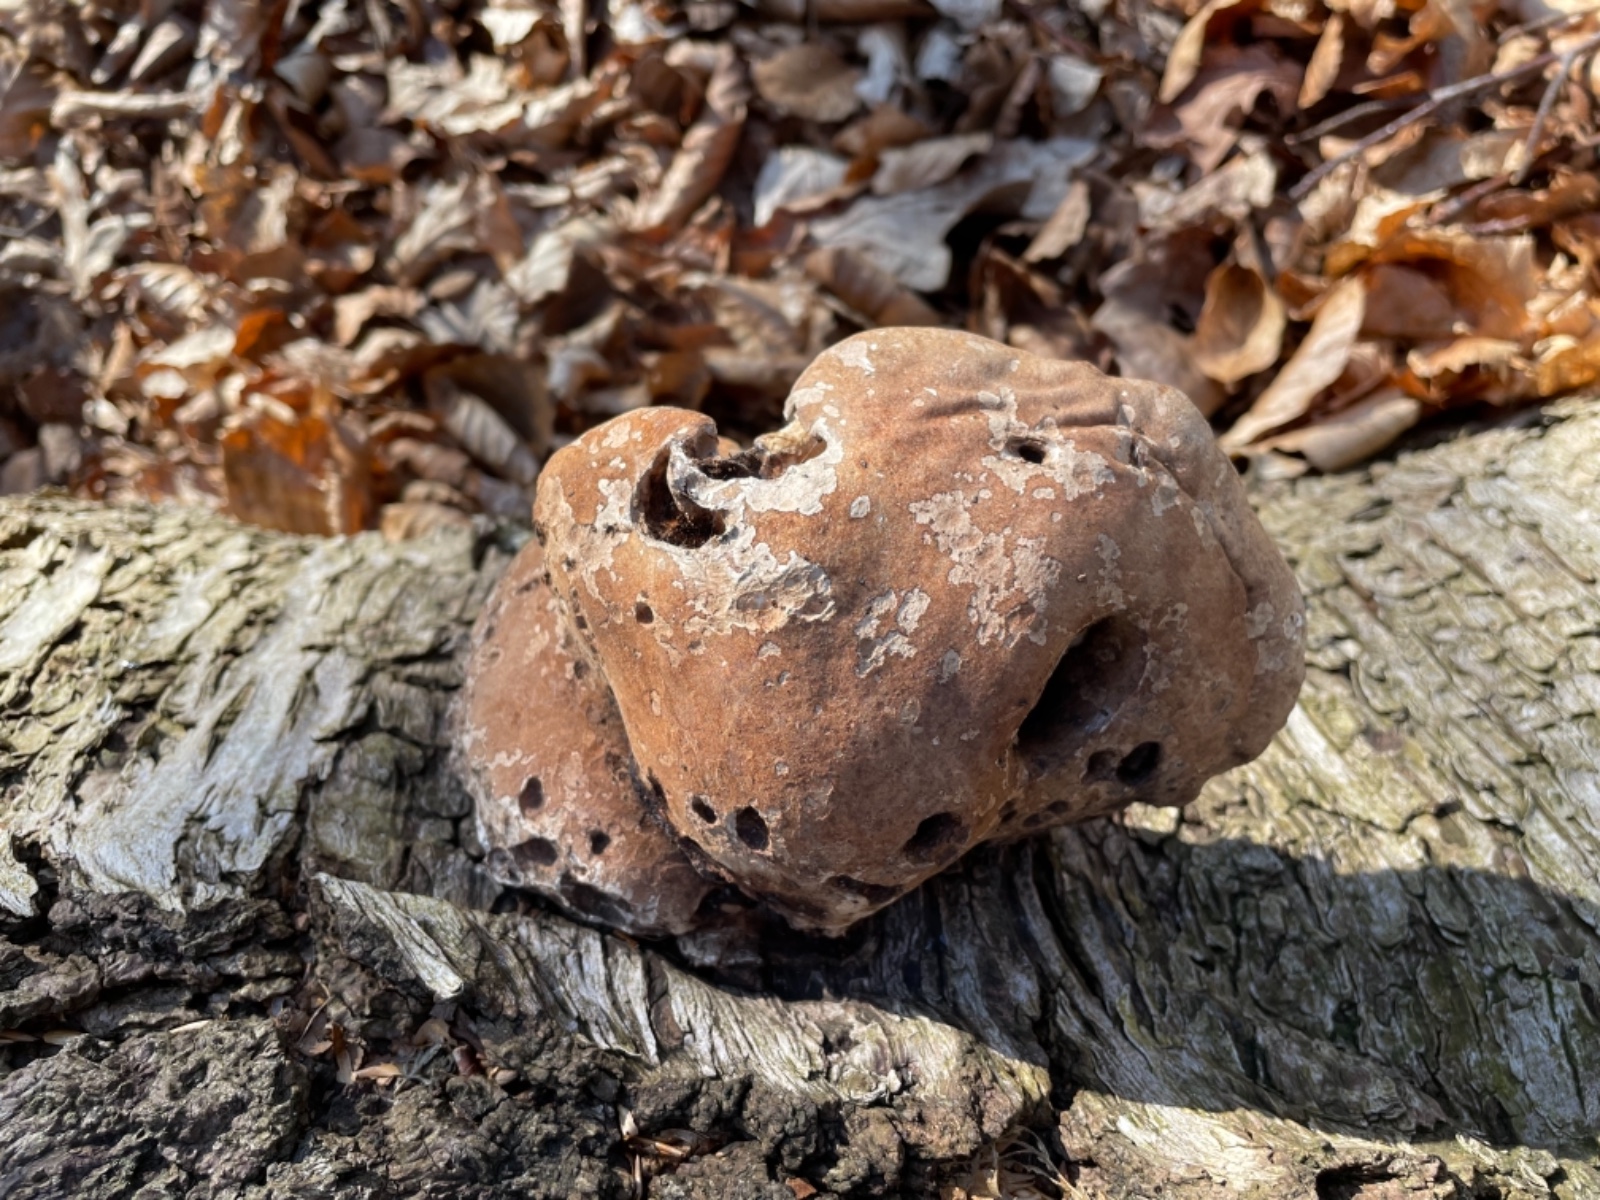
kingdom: Fungi
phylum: Basidiomycota
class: Agaricomycetes
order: Polyporales
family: Fomitopsidaceae
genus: Fomitopsis
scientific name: Fomitopsis betulina
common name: birkeporesvamp
